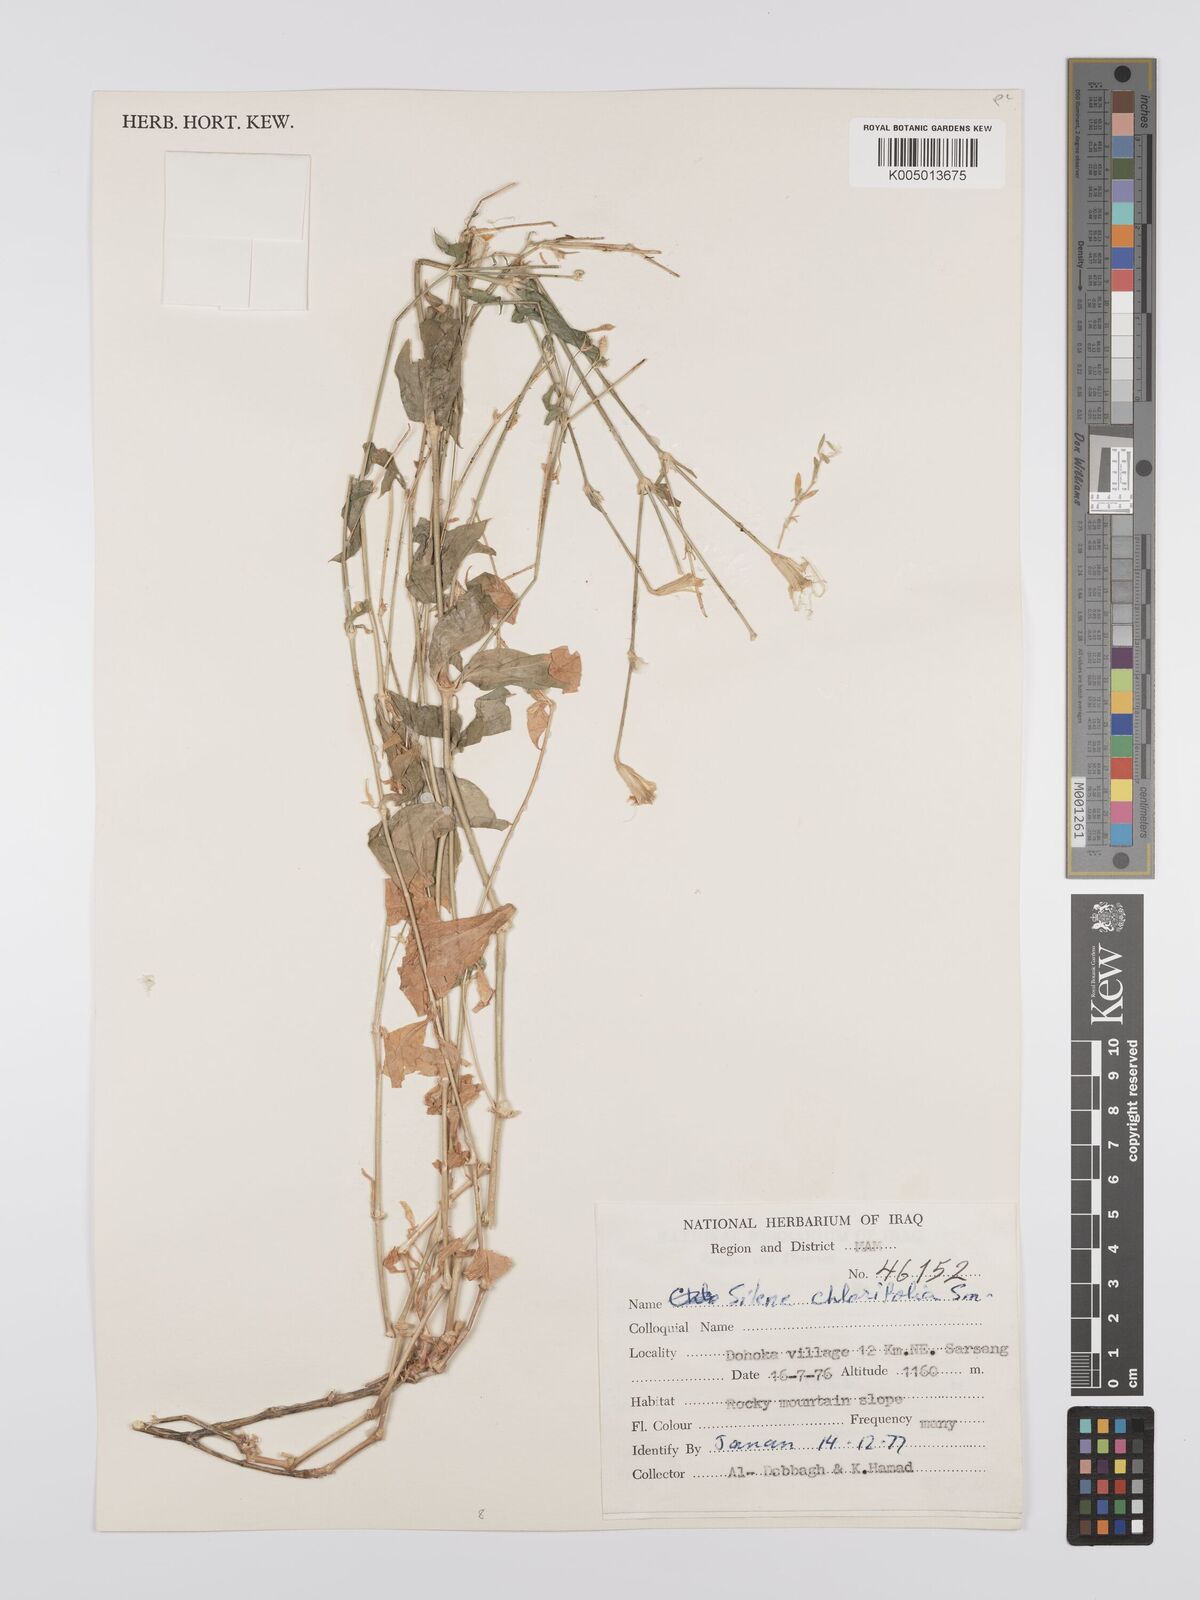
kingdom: Plantae
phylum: Tracheophyta
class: Magnoliopsida
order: Caryophyllales
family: Caryophyllaceae
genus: Silene
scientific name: Silene chlorifolia
